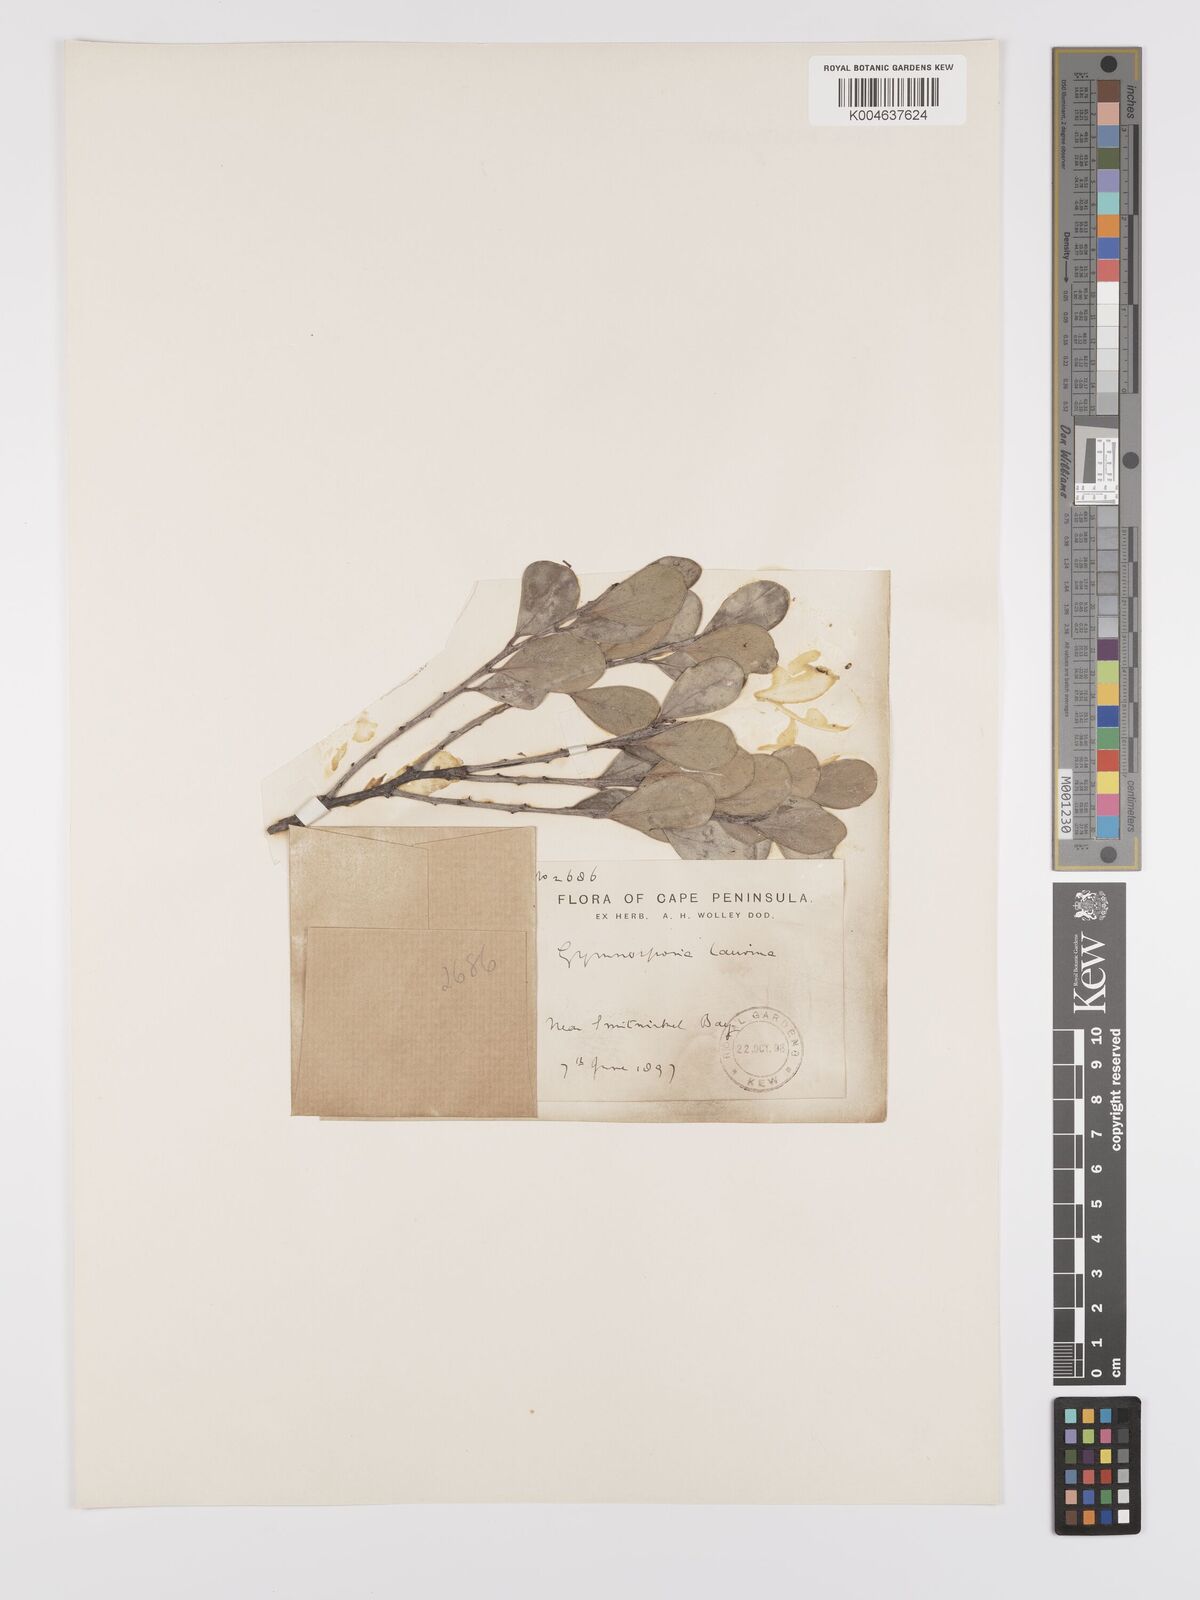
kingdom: Plantae
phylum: Tracheophyta
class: Magnoliopsida
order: Celastrales
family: Celastraceae
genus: Monteverdia
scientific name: Monteverdia laurina
